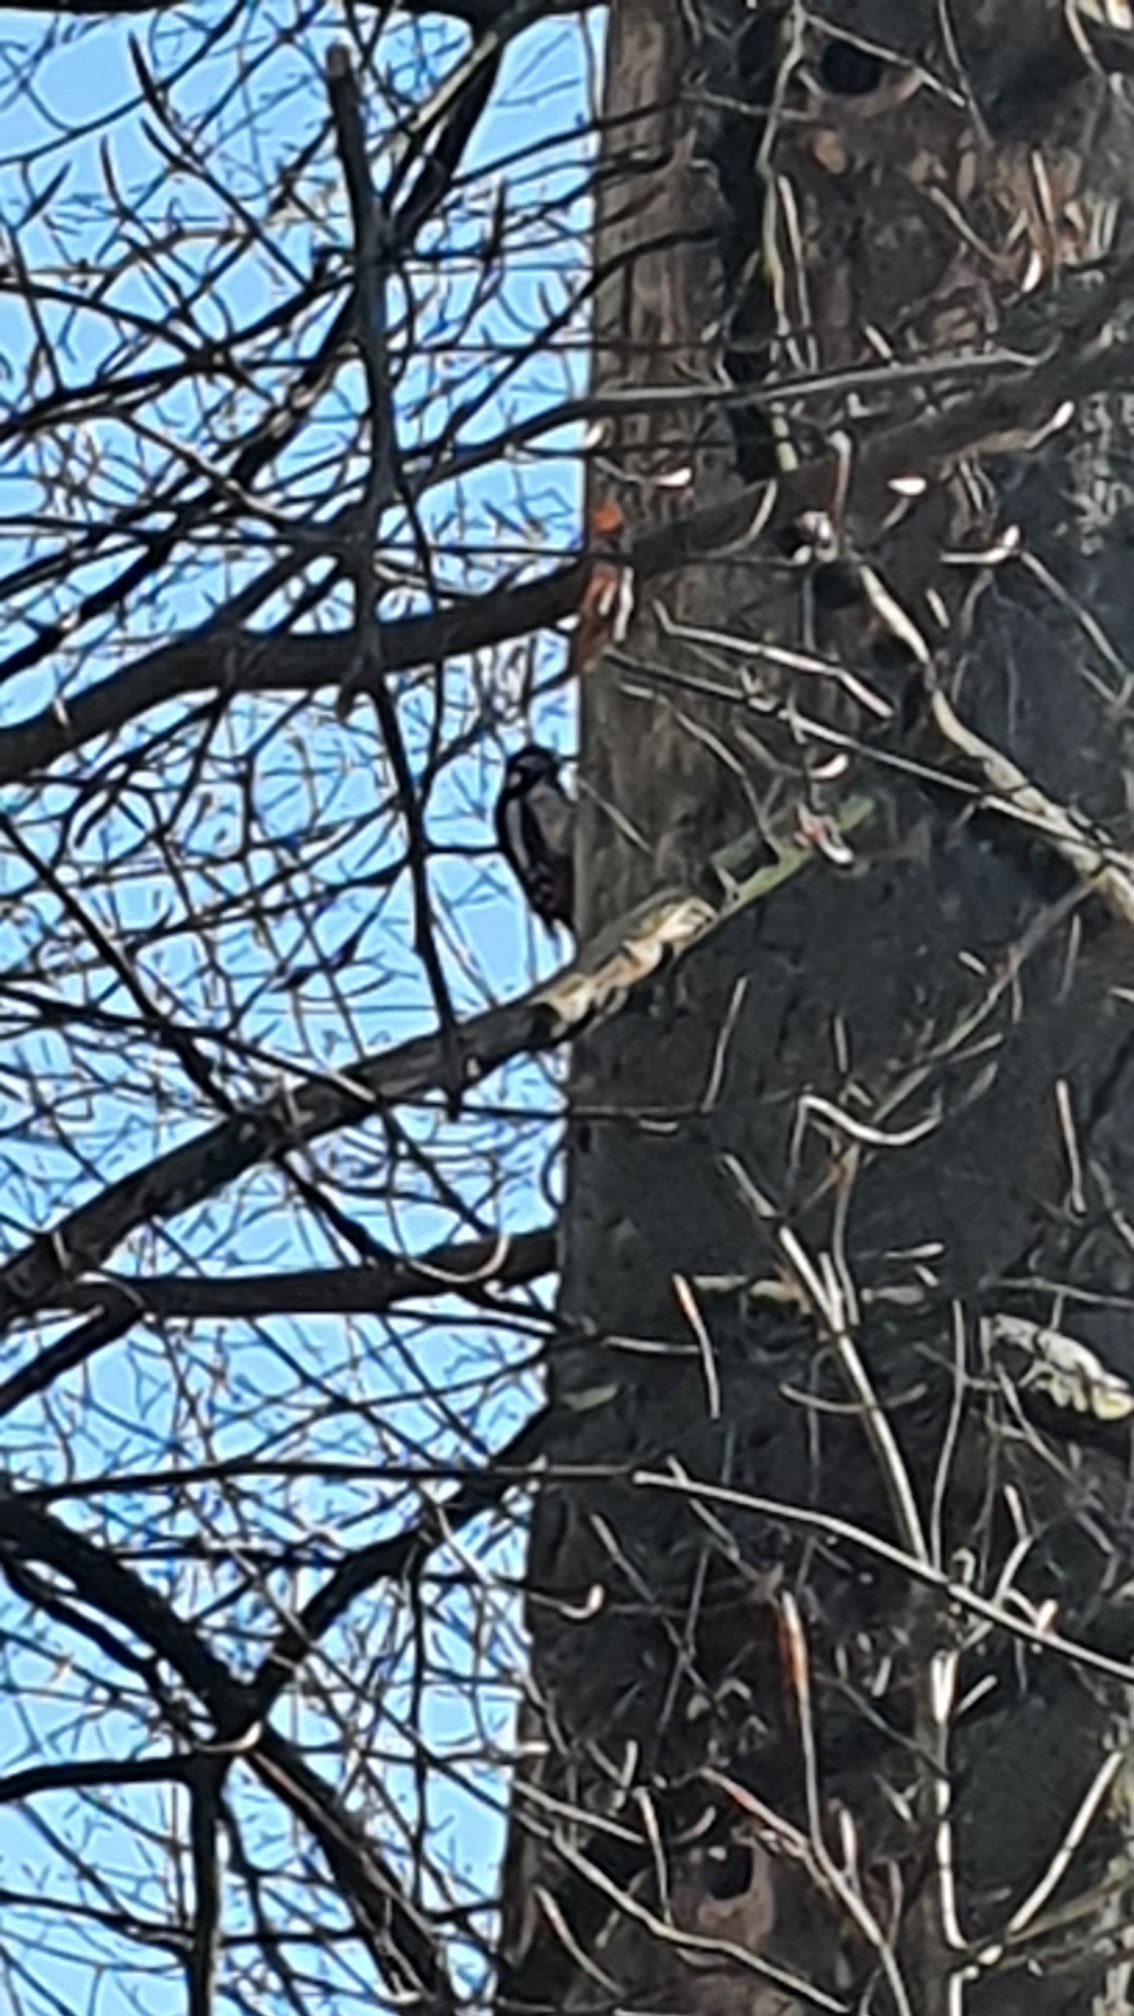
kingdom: Animalia
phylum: Chordata
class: Aves
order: Piciformes
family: Picidae
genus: Dendrocopos
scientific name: Dendrocopos major
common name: Stor flagspætte
